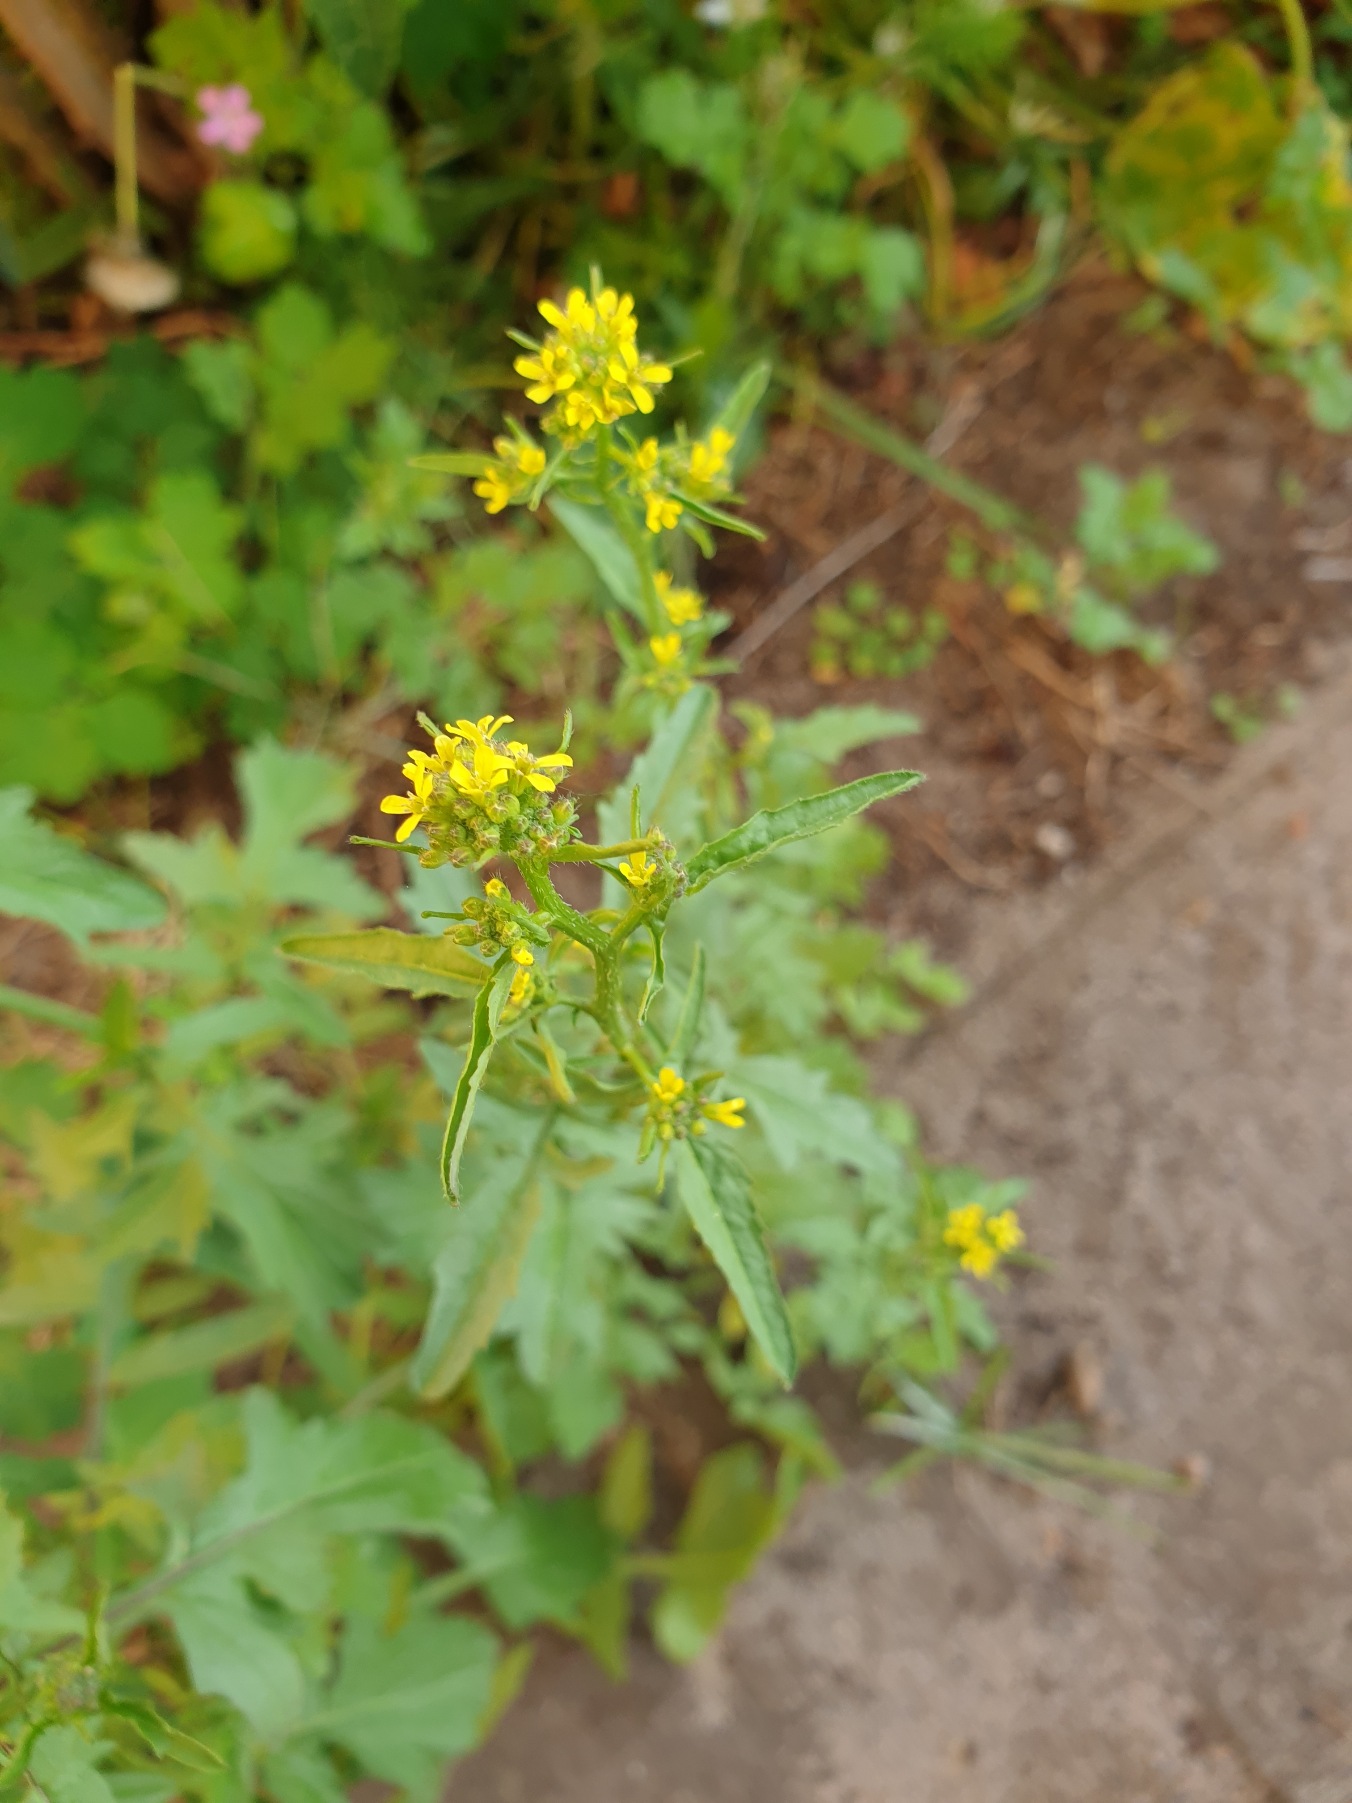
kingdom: Plantae
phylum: Tracheophyta
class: Magnoliopsida
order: Brassicales
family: Brassicaceae
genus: Sisymbrium
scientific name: Sisymbrium officinale
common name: Rank vejsennep
